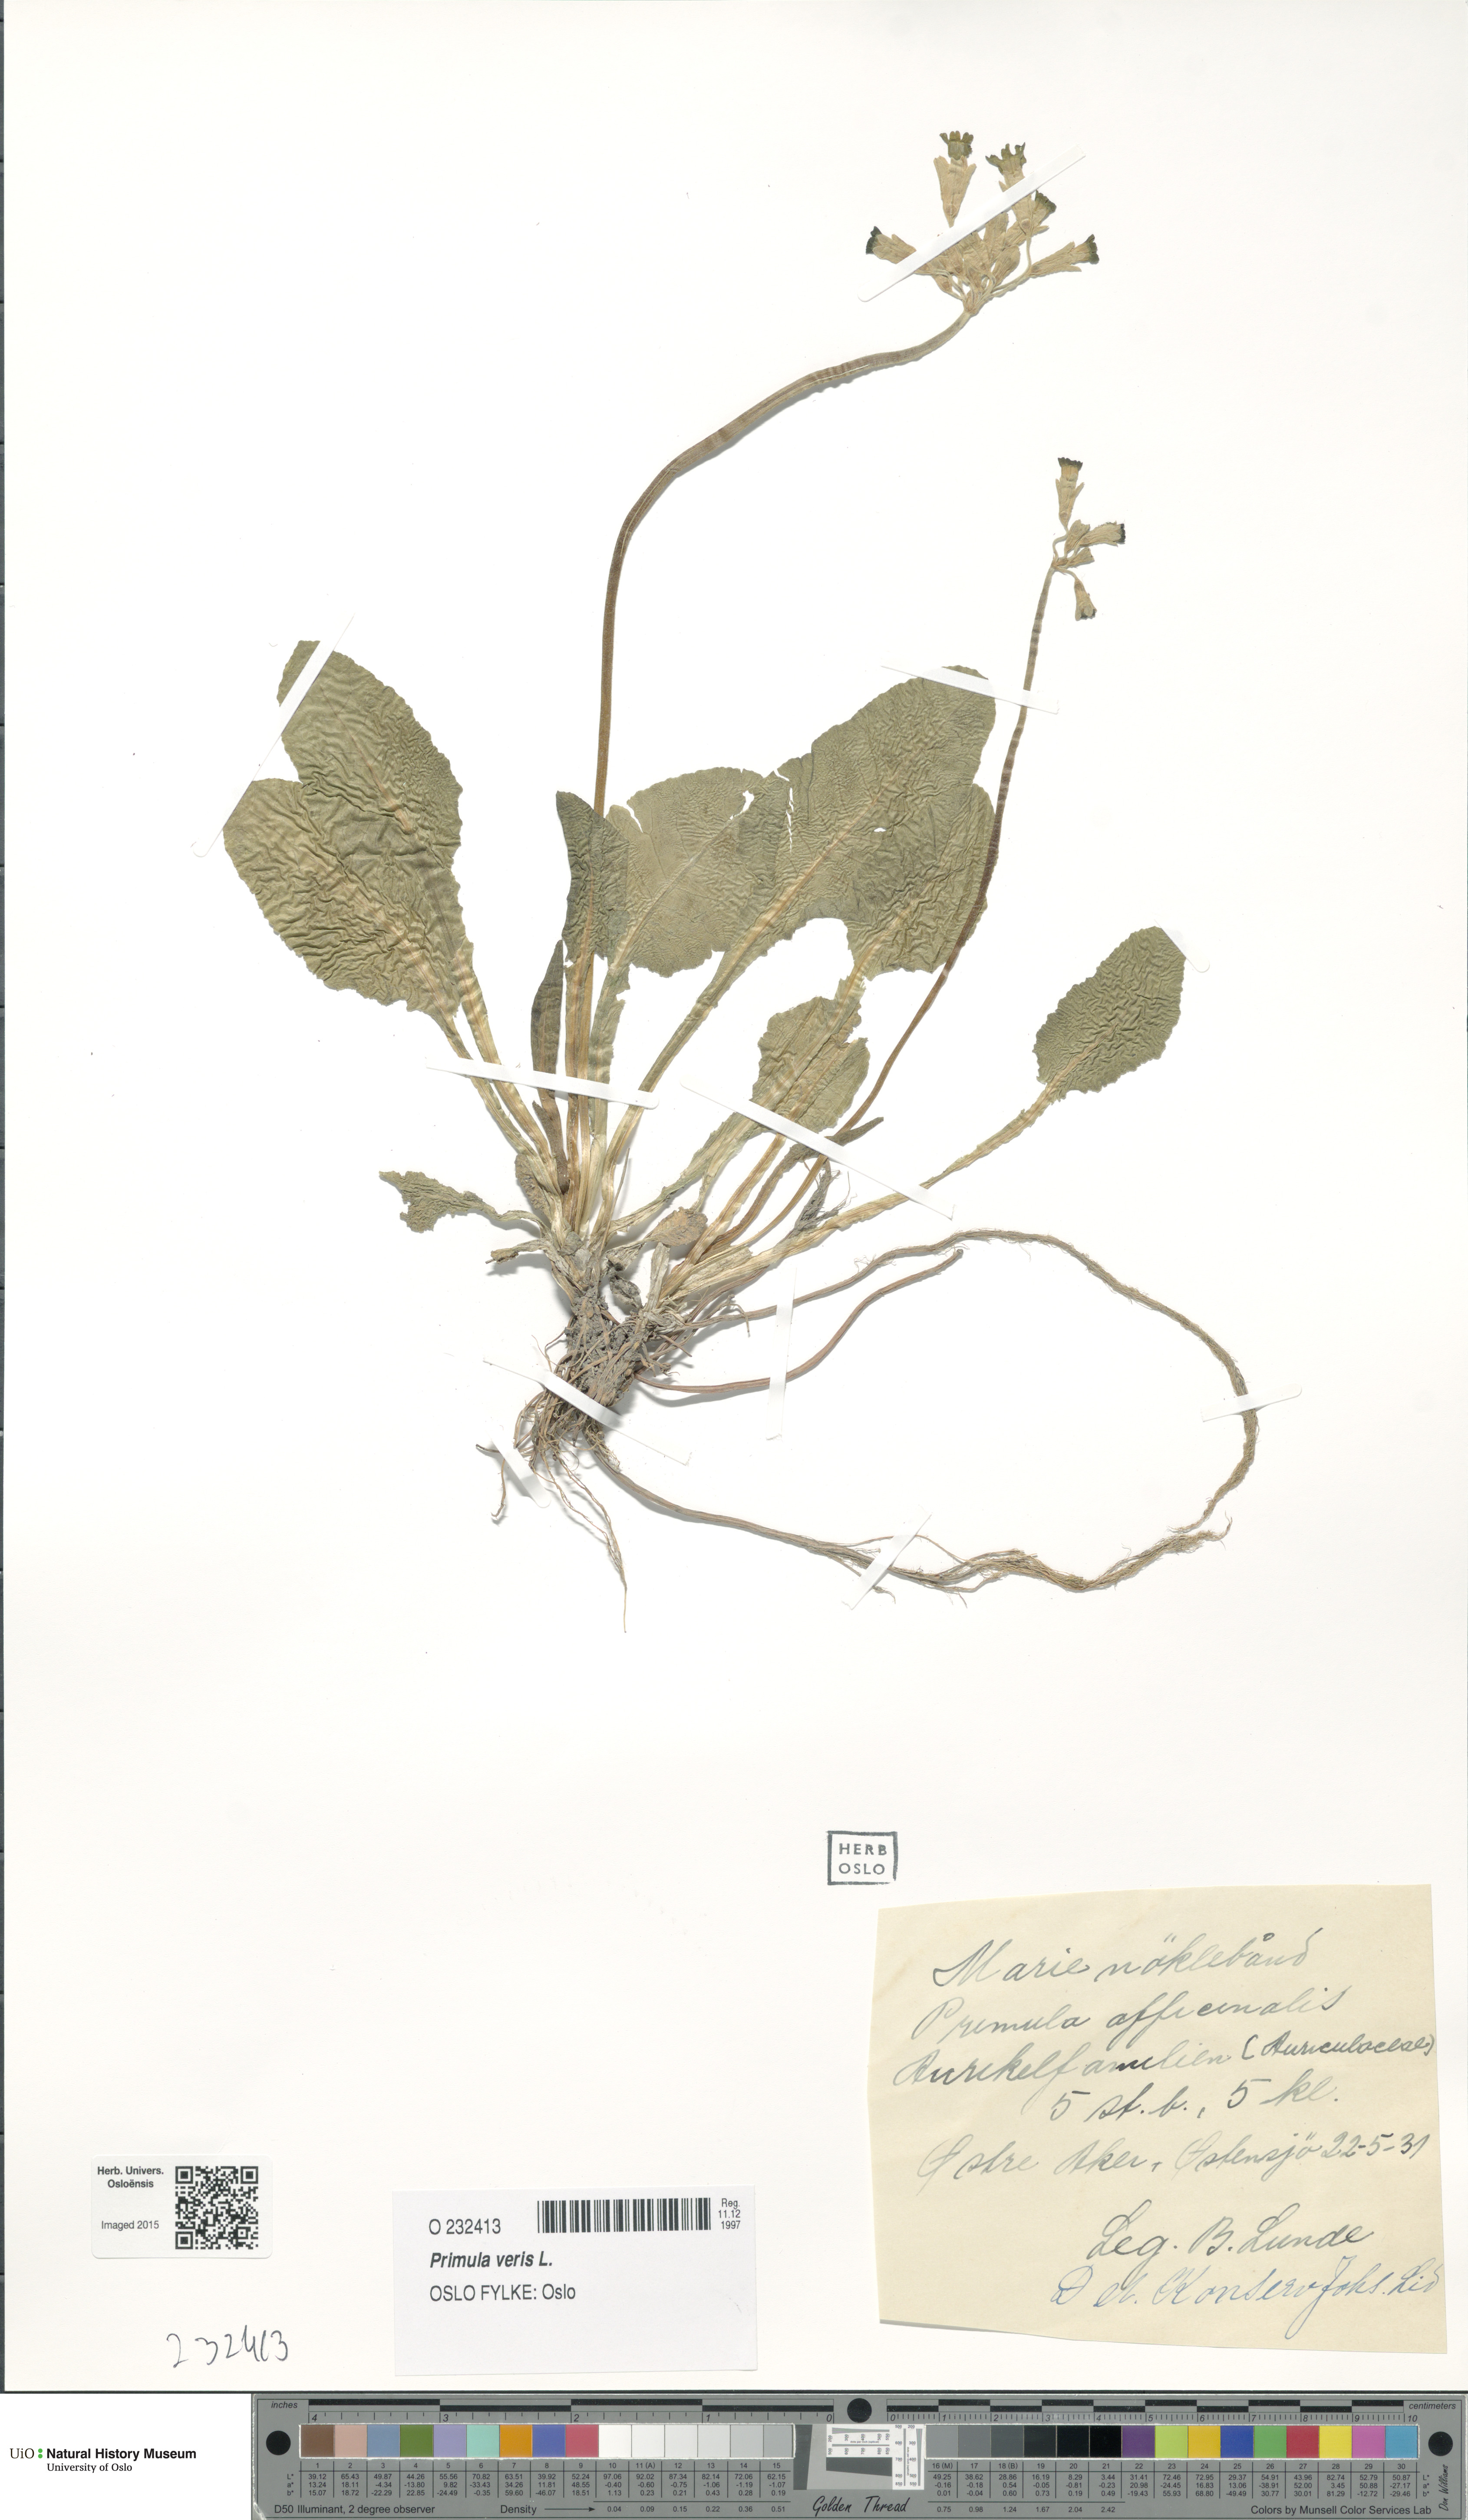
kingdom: Plantae
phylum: Tracheophyta
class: Magnoliopsida
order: Ericales
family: Primulaceae
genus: Primula
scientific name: Primula veris
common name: Cowslip
